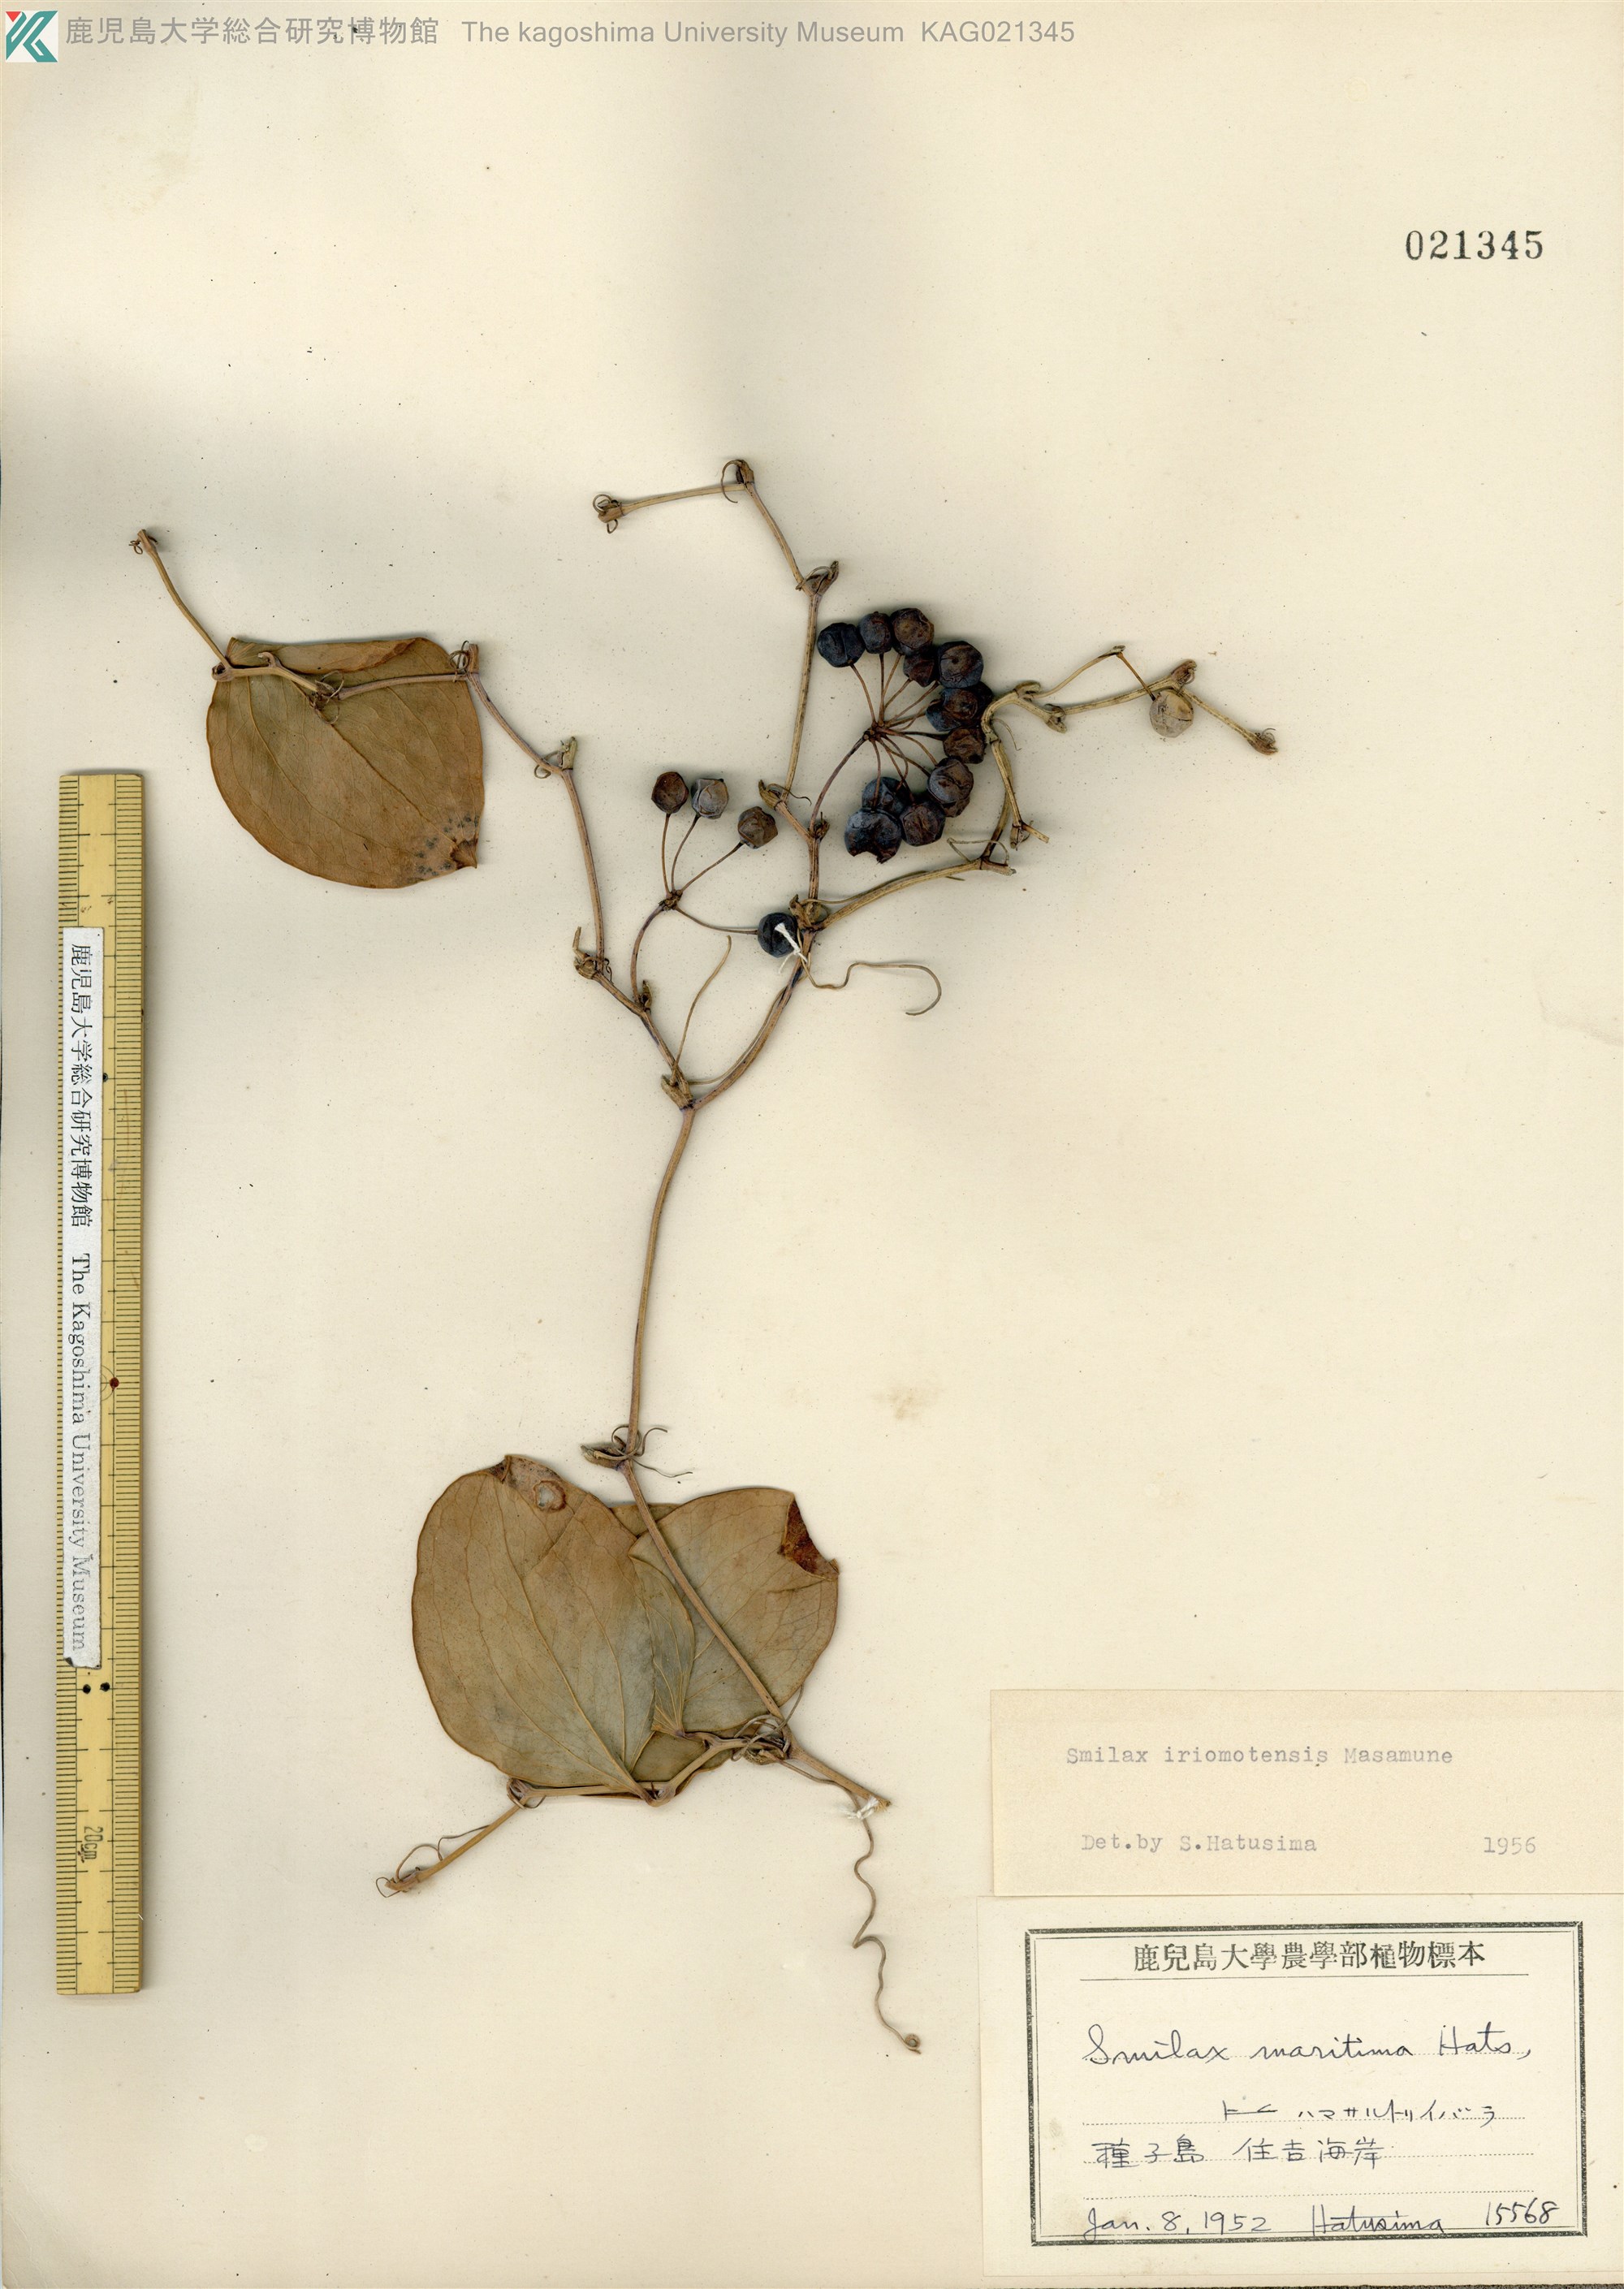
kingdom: Plantae
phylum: Tracheophyta
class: Liliopsida
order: Liliales
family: Smilacaceae
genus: Smilax
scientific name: Smilax sebeana
